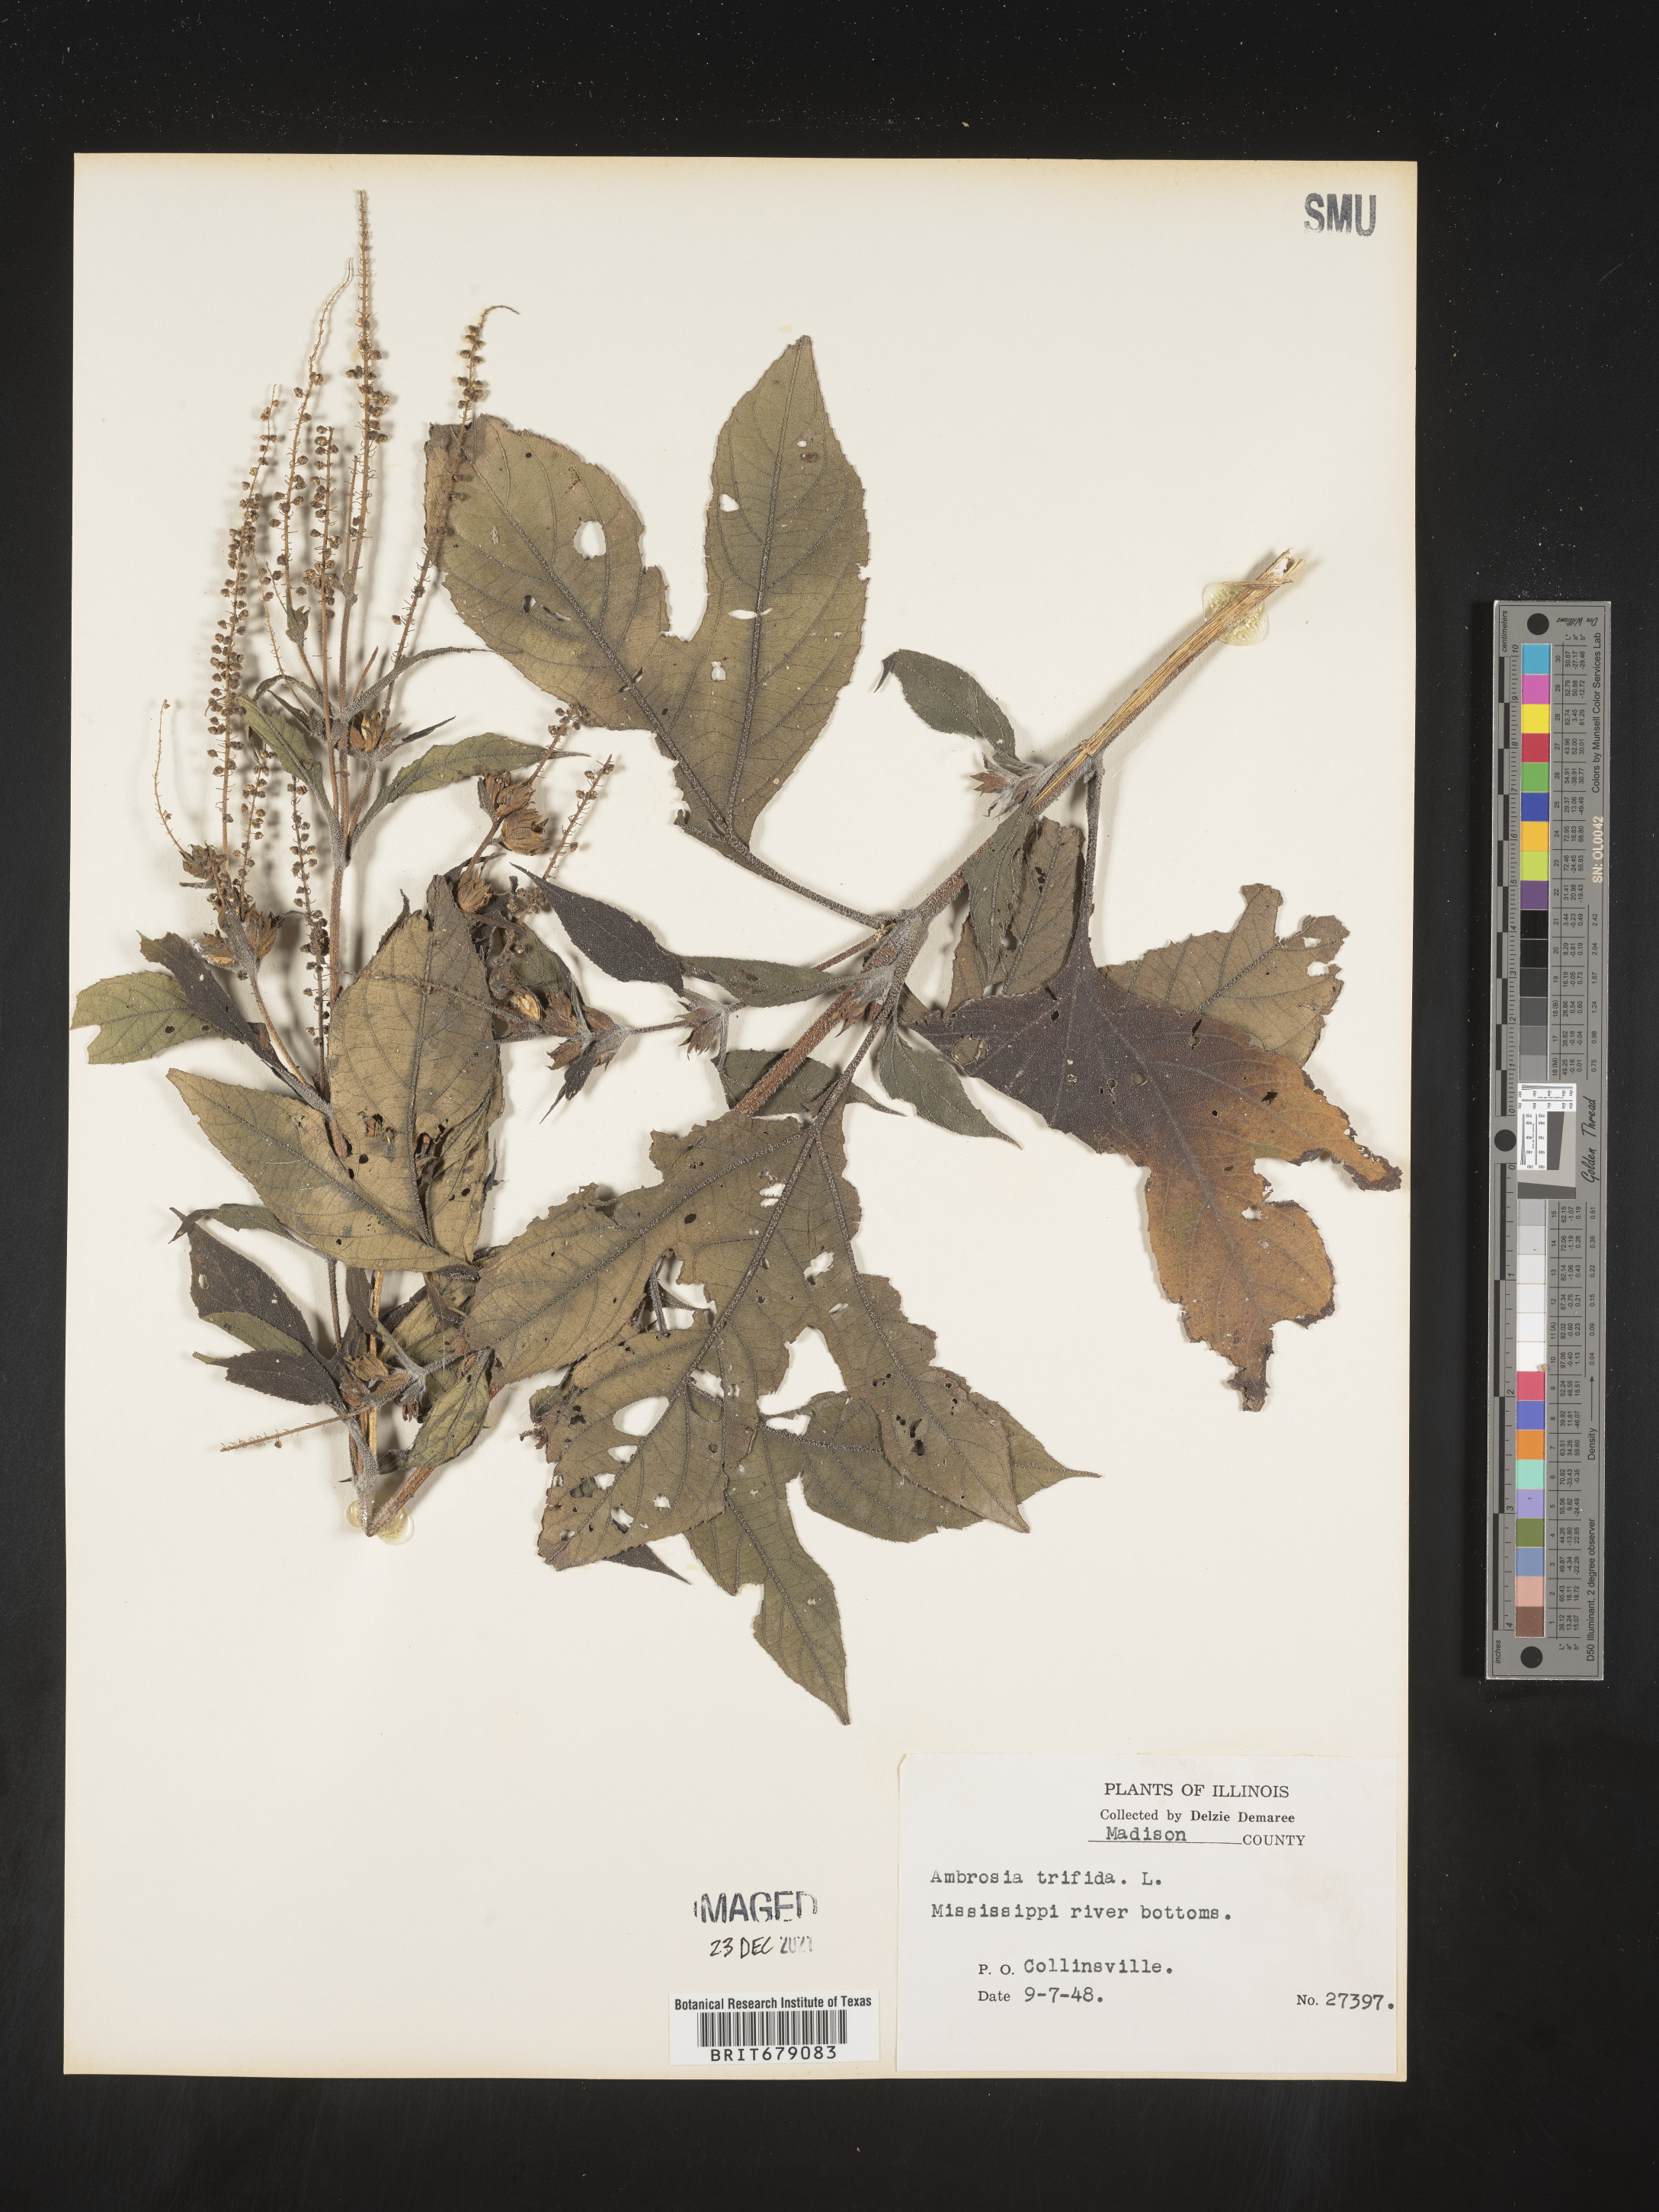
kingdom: Plantae
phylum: Tracheophyta
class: Magnoliopsida
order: Asterales
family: Asteraceae
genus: Ambrosia
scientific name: Ambrosia trifida
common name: Giant ragweed
